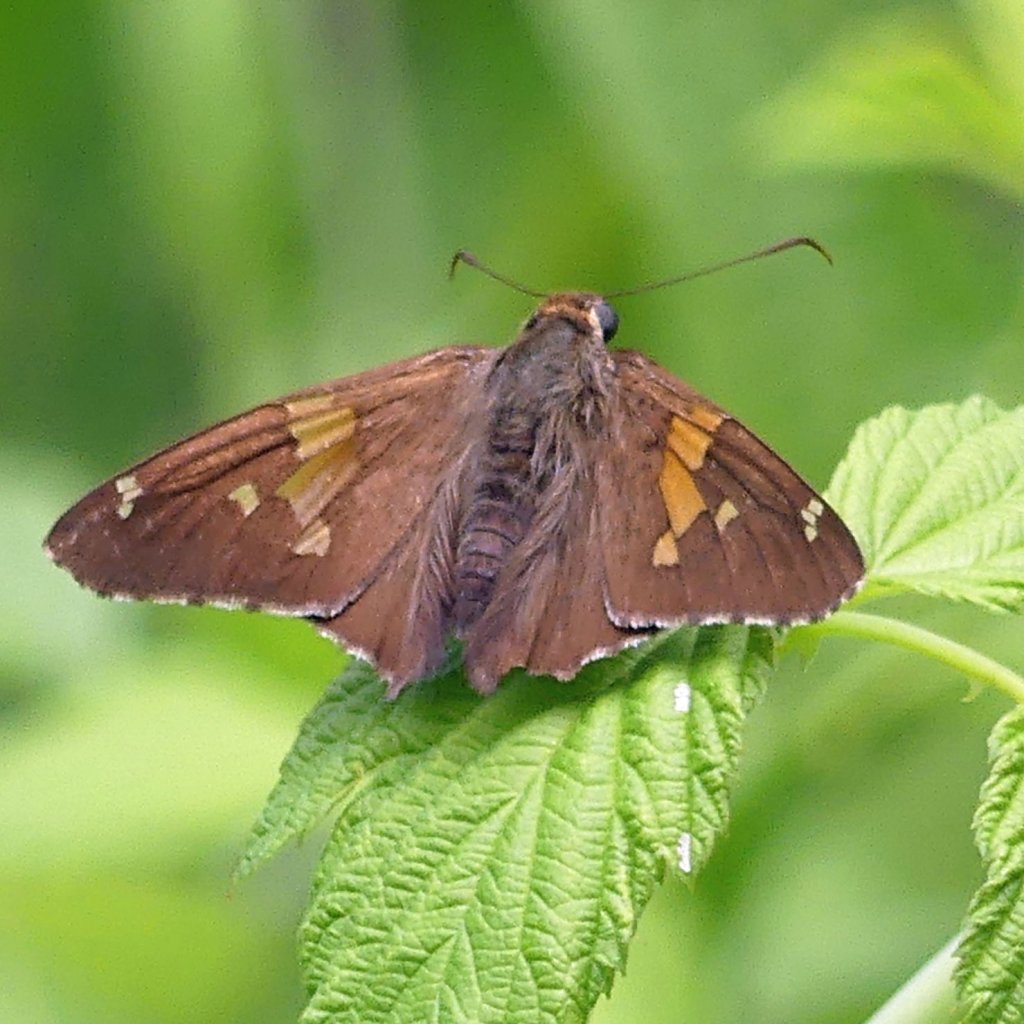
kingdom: Animalia
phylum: Arthropoda
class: Insecta
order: Lepidoptera
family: Hesperiidae
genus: Epargyreus
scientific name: Epargyreus clarus
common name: Silver-spotted Skipper
